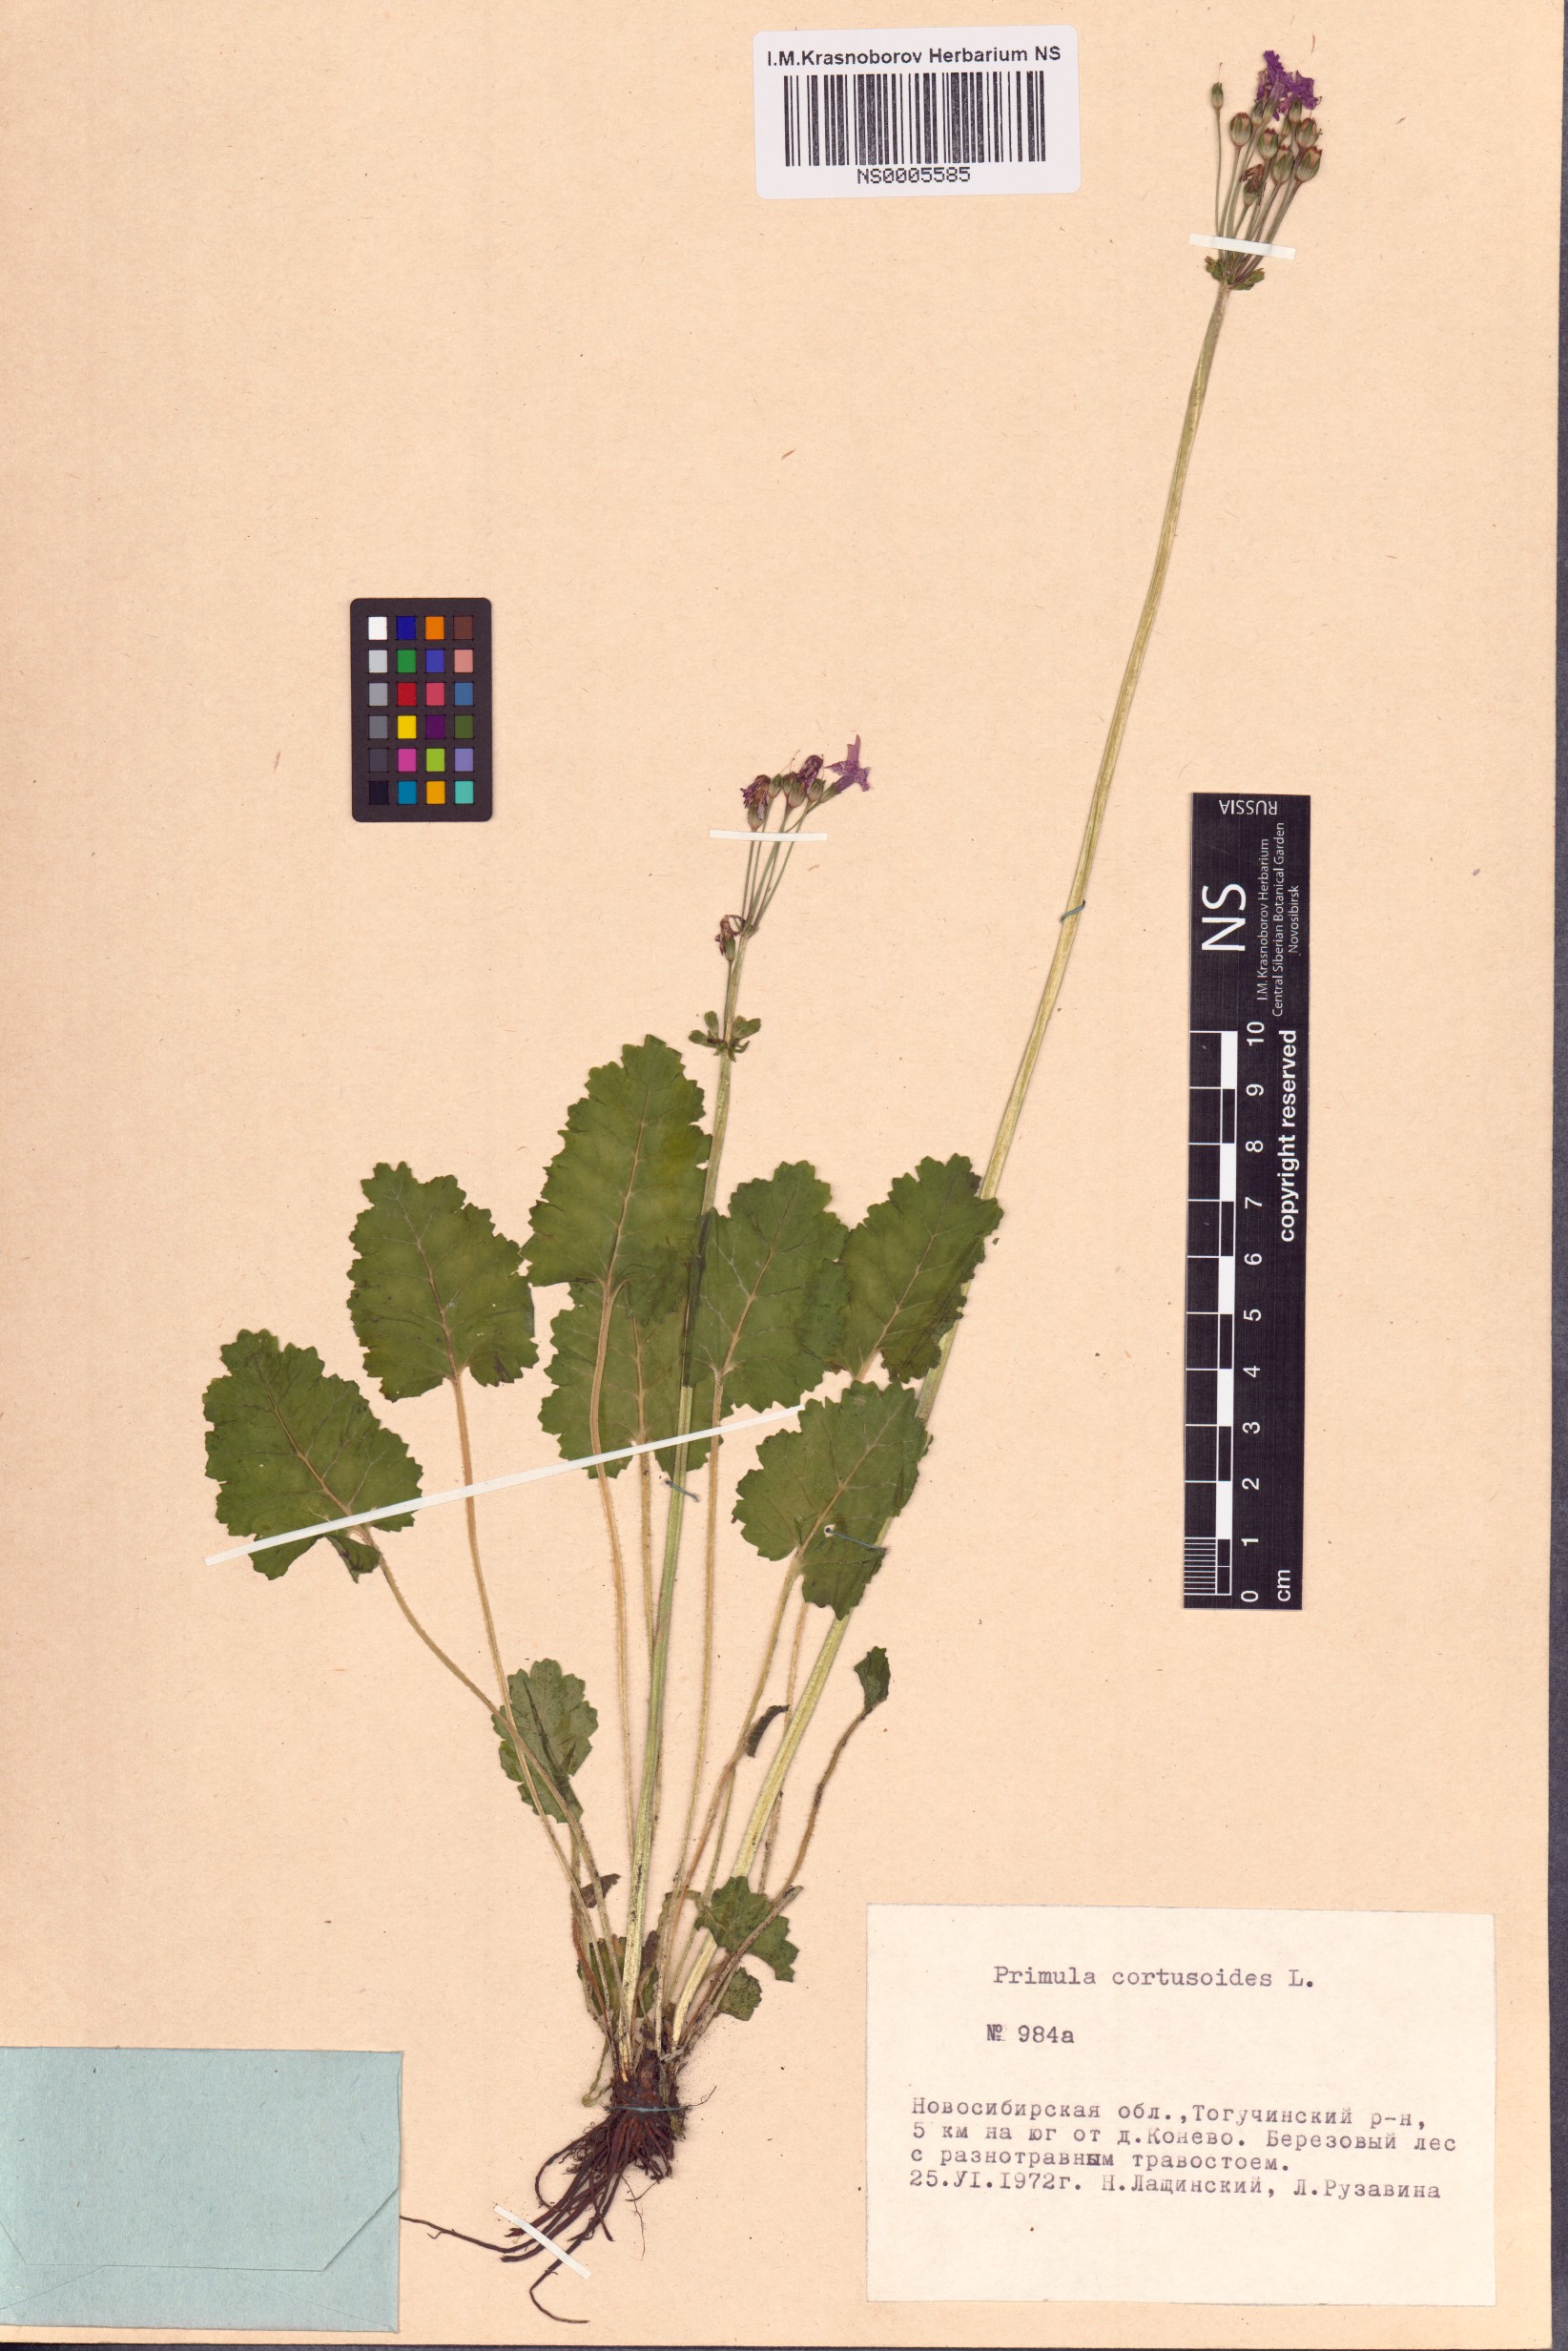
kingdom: Plantae
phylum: Tracheophyta
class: Magnoliopsida
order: Ericales
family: Primulaceae
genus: Primula
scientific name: Primula cortusoides
